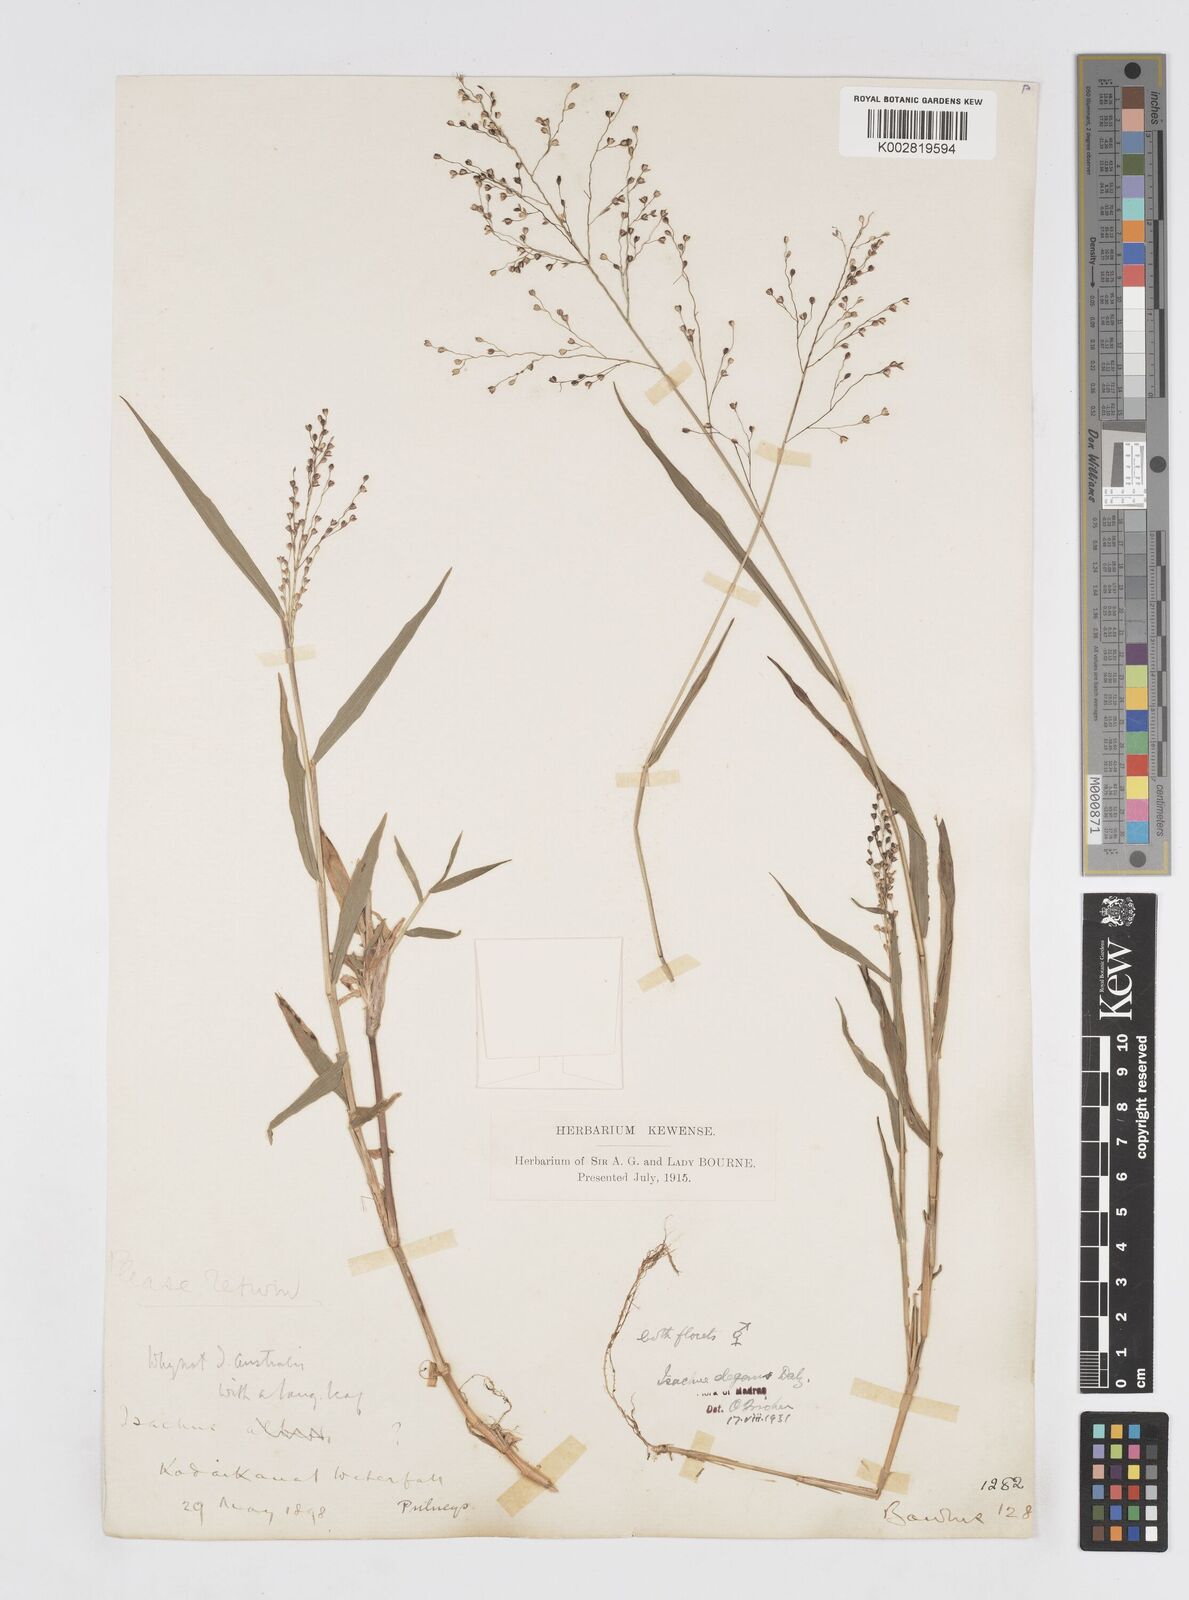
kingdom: Plantae
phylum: Tracheophyta
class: Liliopsida
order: Poales
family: Poaceae
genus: Isachne
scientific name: Isachne elegans
